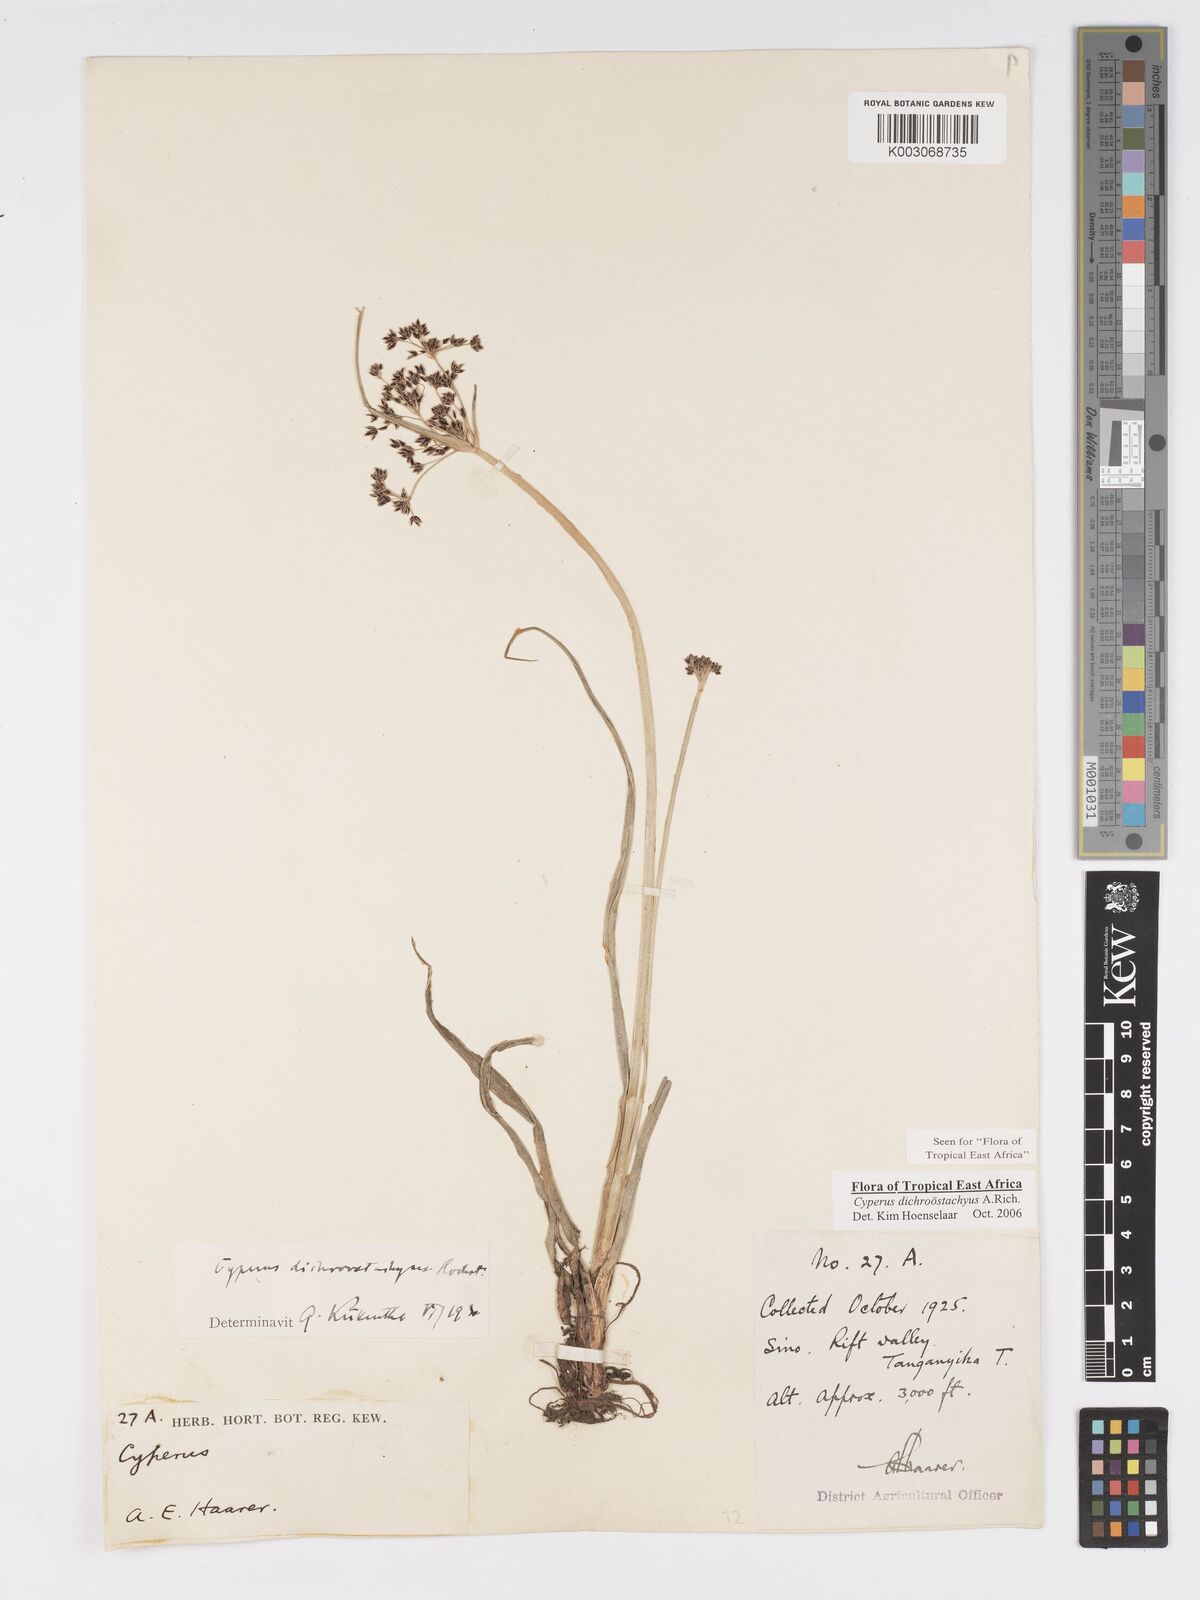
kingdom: Plantae
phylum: Tracheophyta
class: Liliopsida
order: Poales
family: Cyperaceae
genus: Cyperus
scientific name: Cyperus dichrostachyus
